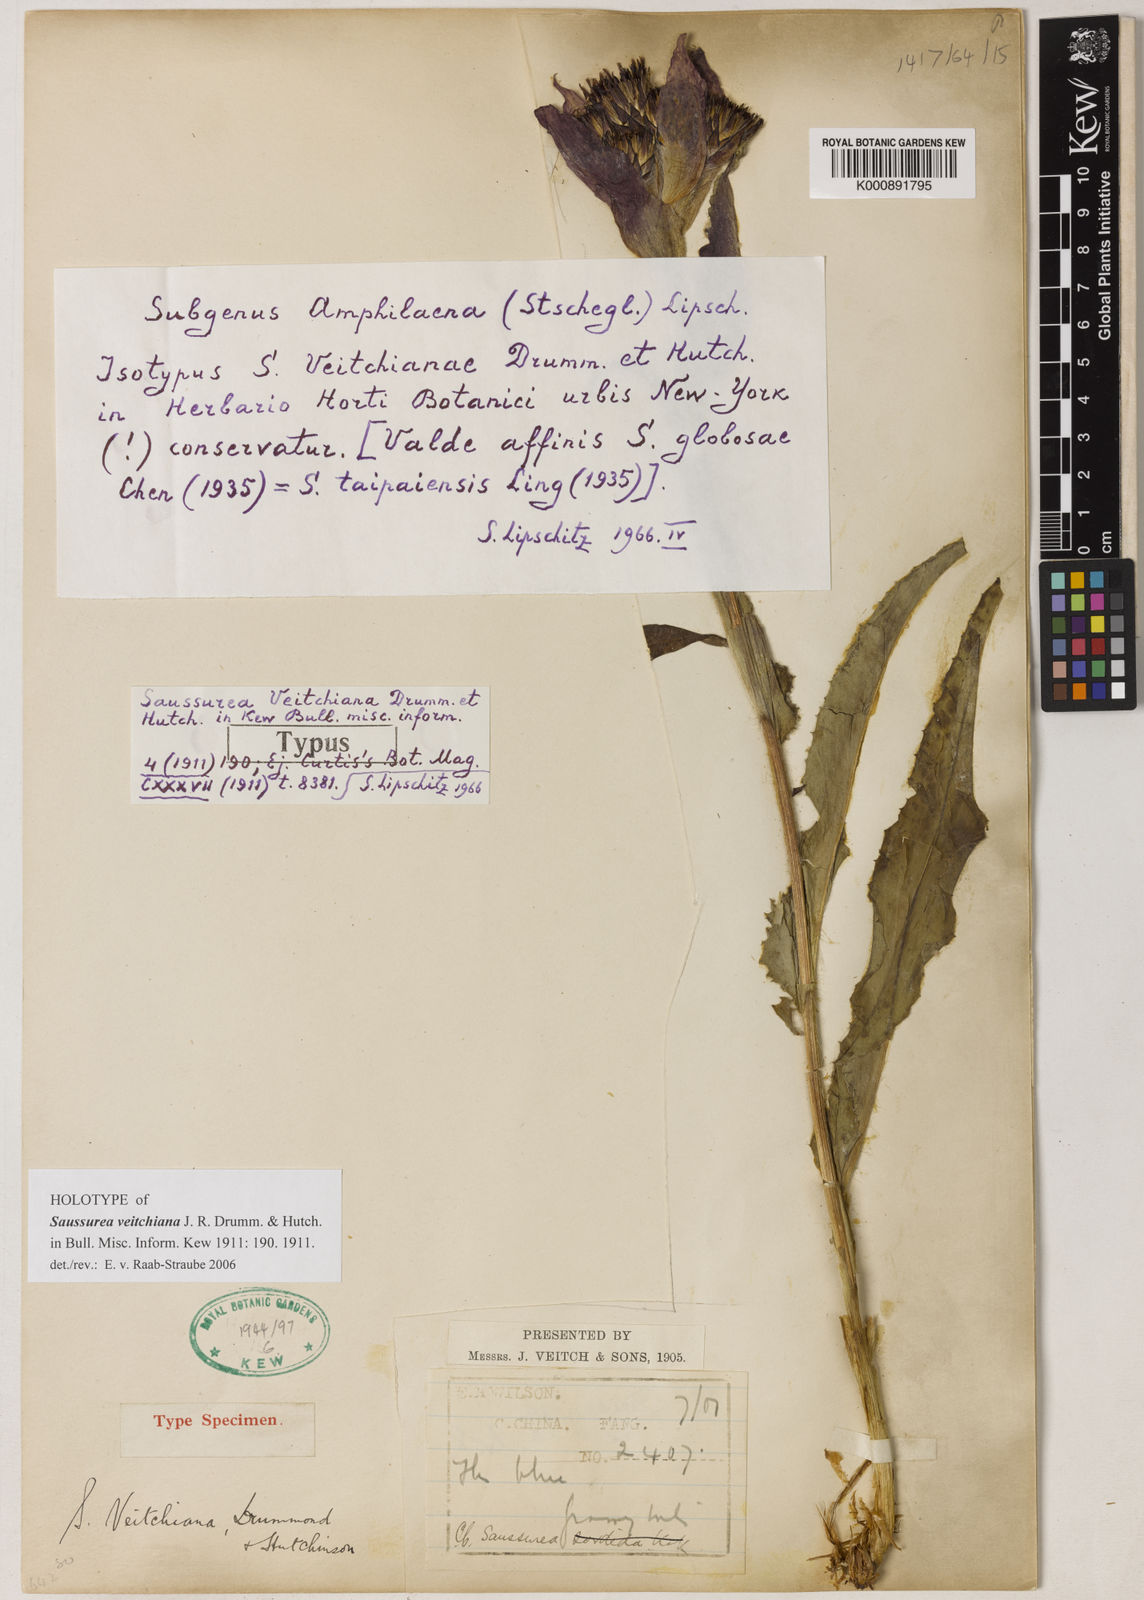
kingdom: Plantae
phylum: Tracheophyta
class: Magnoliopsida
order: Asterales
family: Asteraceae
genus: Saussurea
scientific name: Saussurea veitchiana
